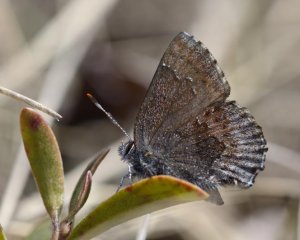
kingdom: Animalia
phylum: Arthropoda
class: Insecta
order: Lepidoptera
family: Lycaenidae
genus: Callophrys
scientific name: Callophrys polios
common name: Hoary Elfin
